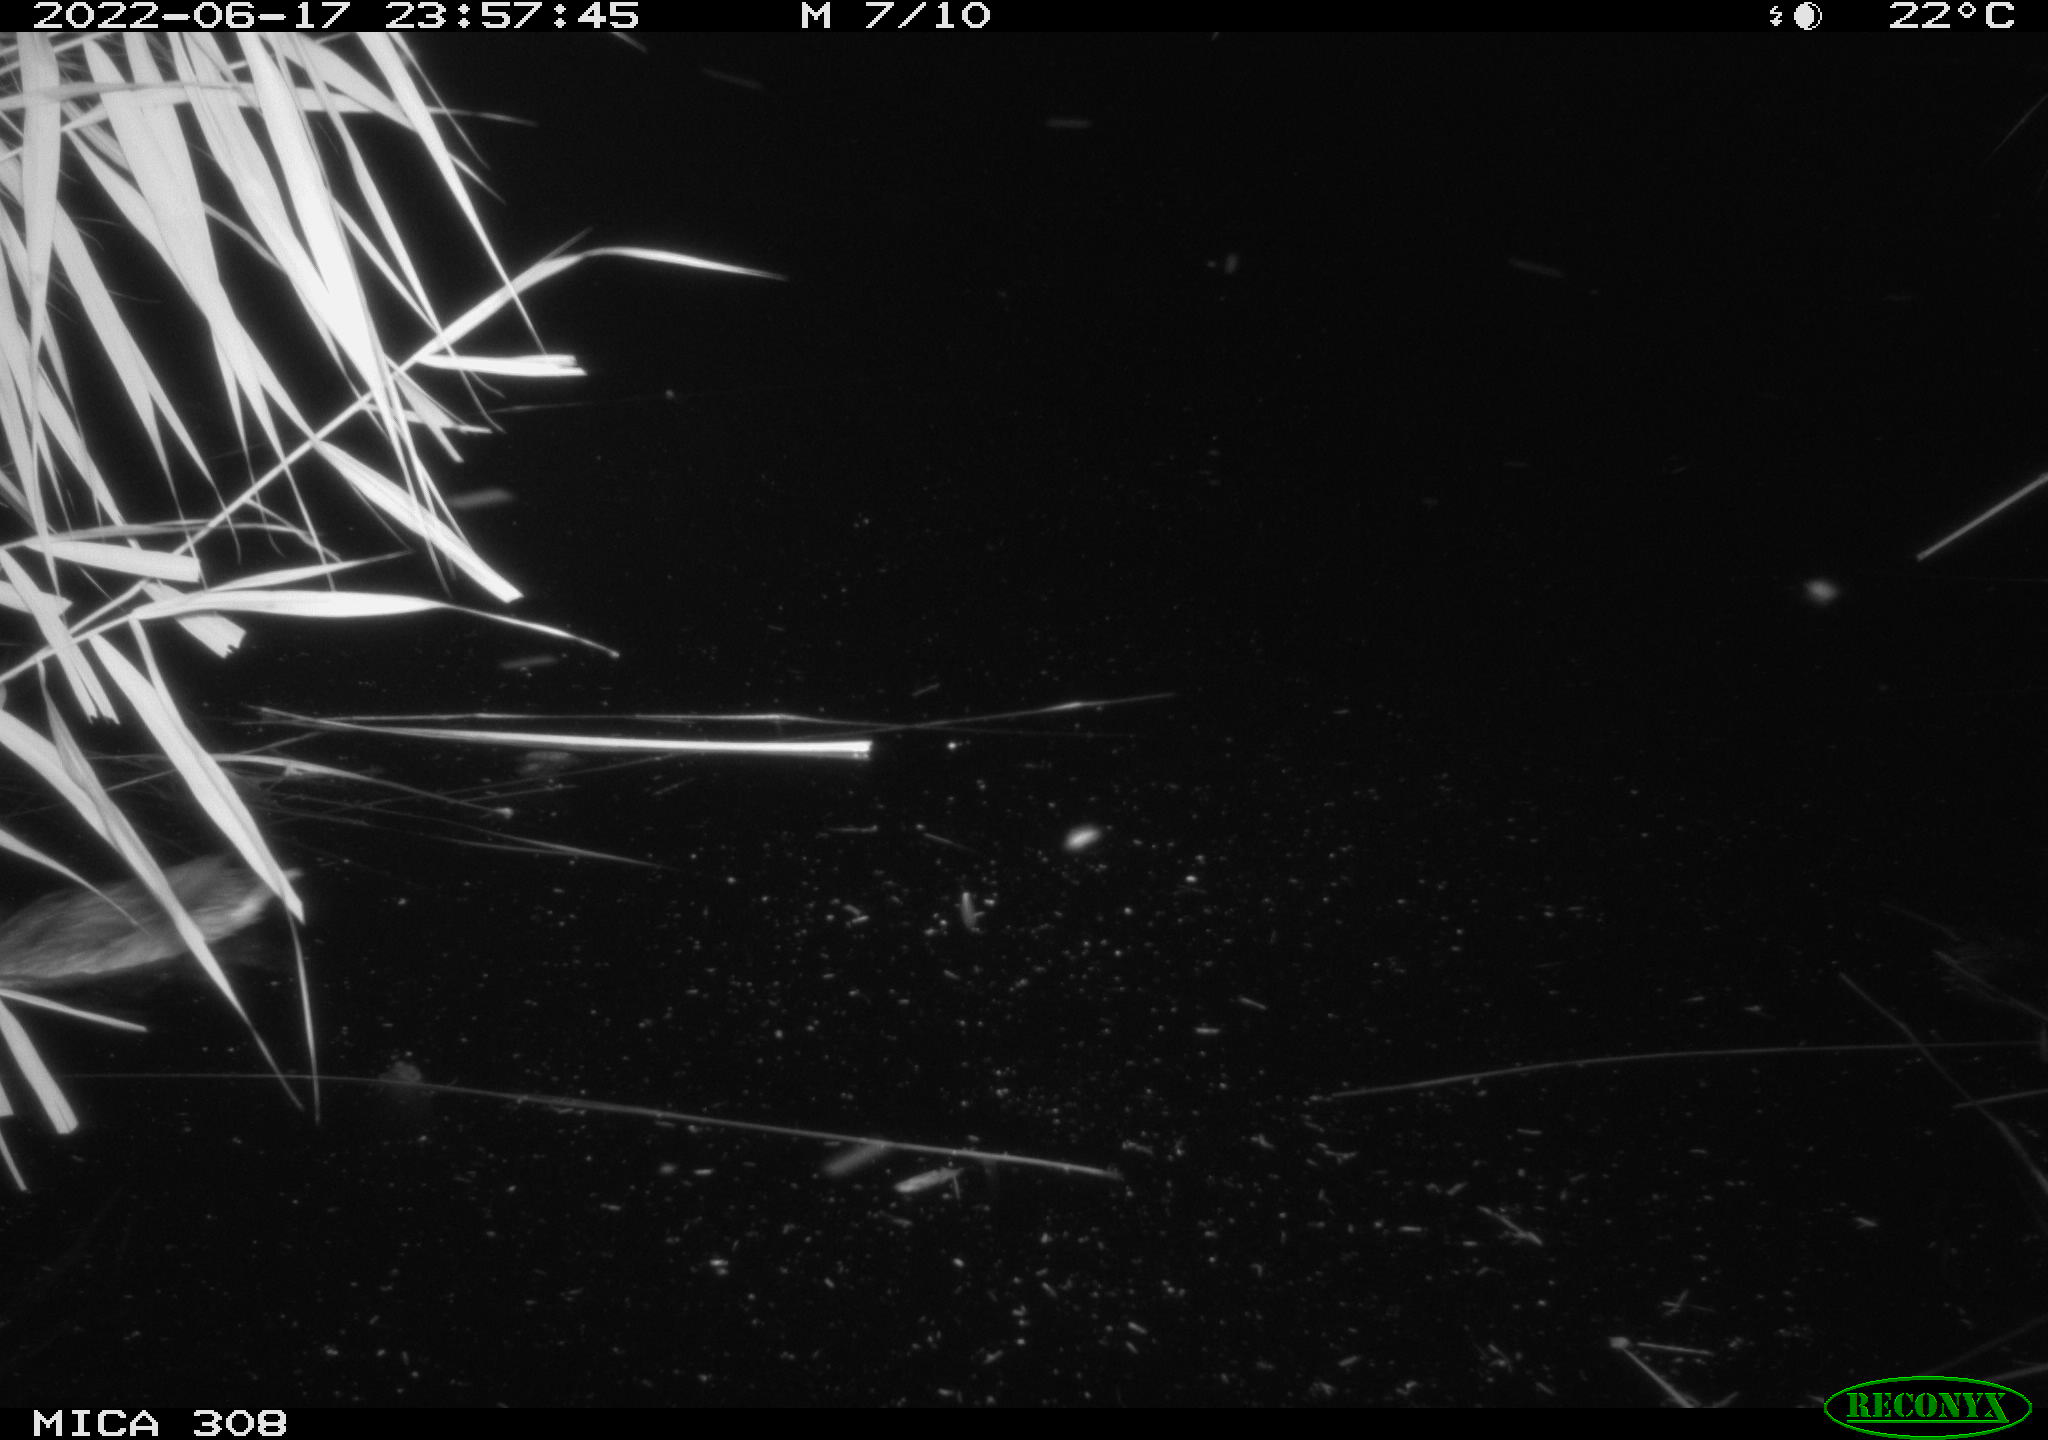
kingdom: Animalia
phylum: Chordata
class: Aves
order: Anseriformes
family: Anatidae
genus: Anas
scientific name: Anas platyrhynchos
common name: Mallard
